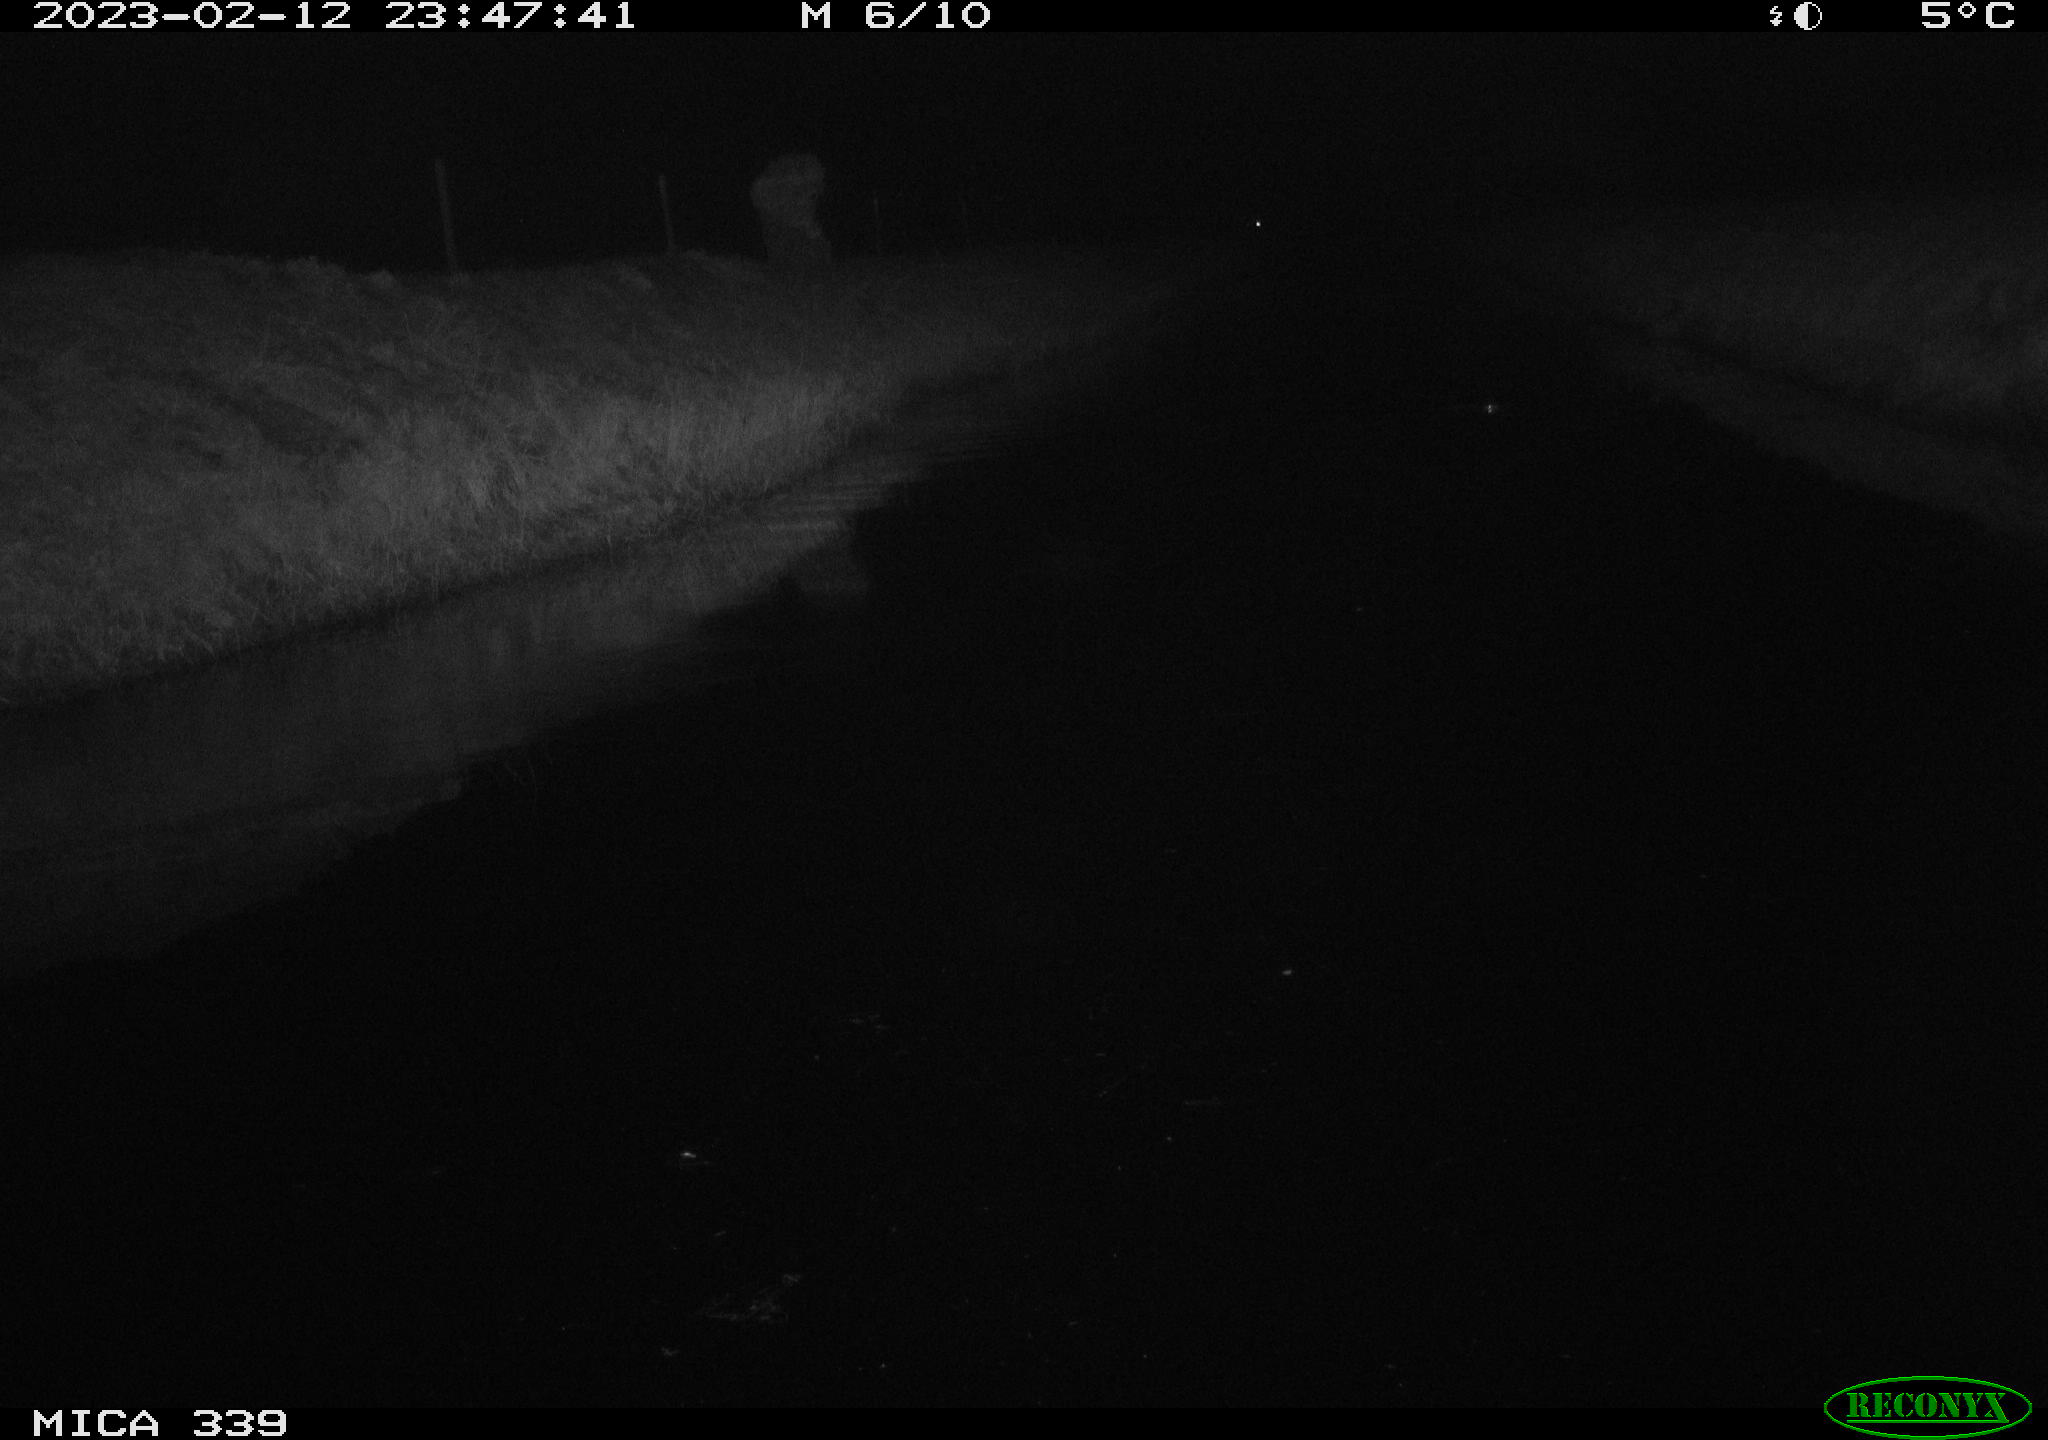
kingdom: Animalia
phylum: Chordata
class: Aves
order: Pelecaniformes
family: Ardeidae
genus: Ardea
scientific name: Ardea cinerea
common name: Grey heron
